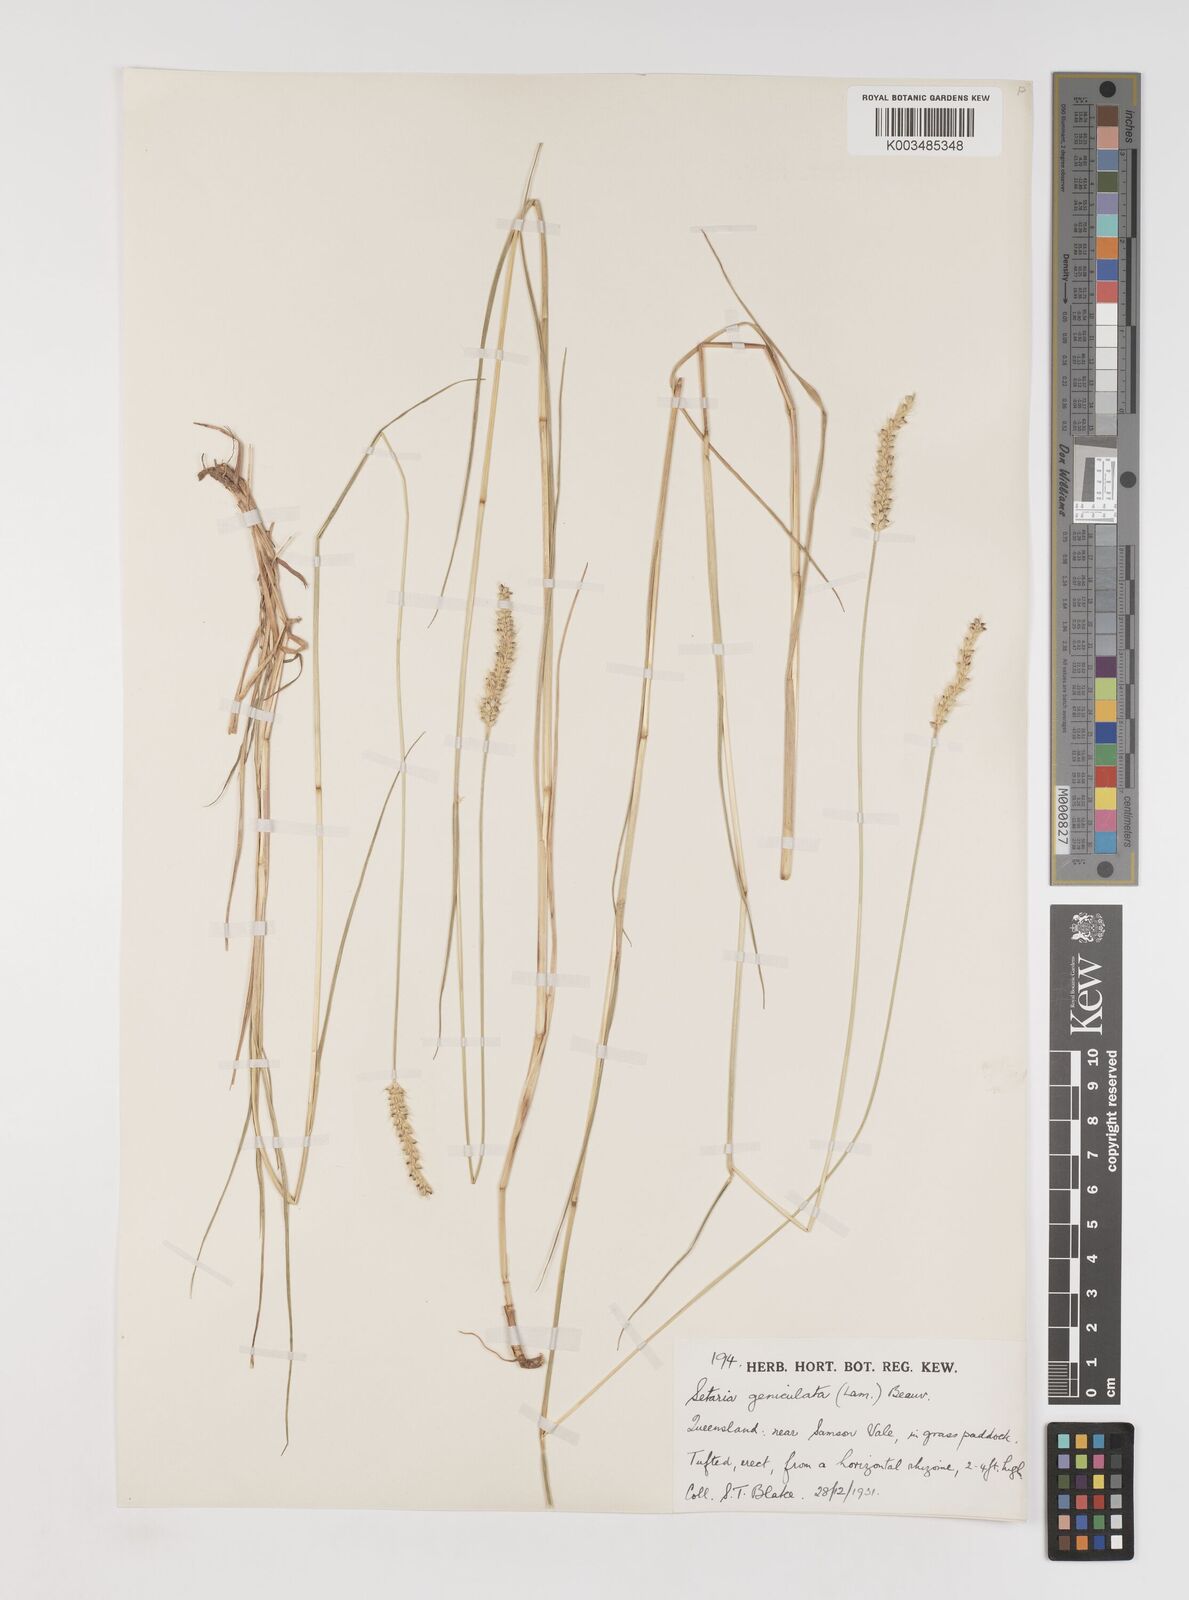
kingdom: Plantae
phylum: Tracheophyta
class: Liliopsida
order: Poales
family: Poaceae
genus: Setaria
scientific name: Setaria parviflora
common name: Knotroot bristle-grass
